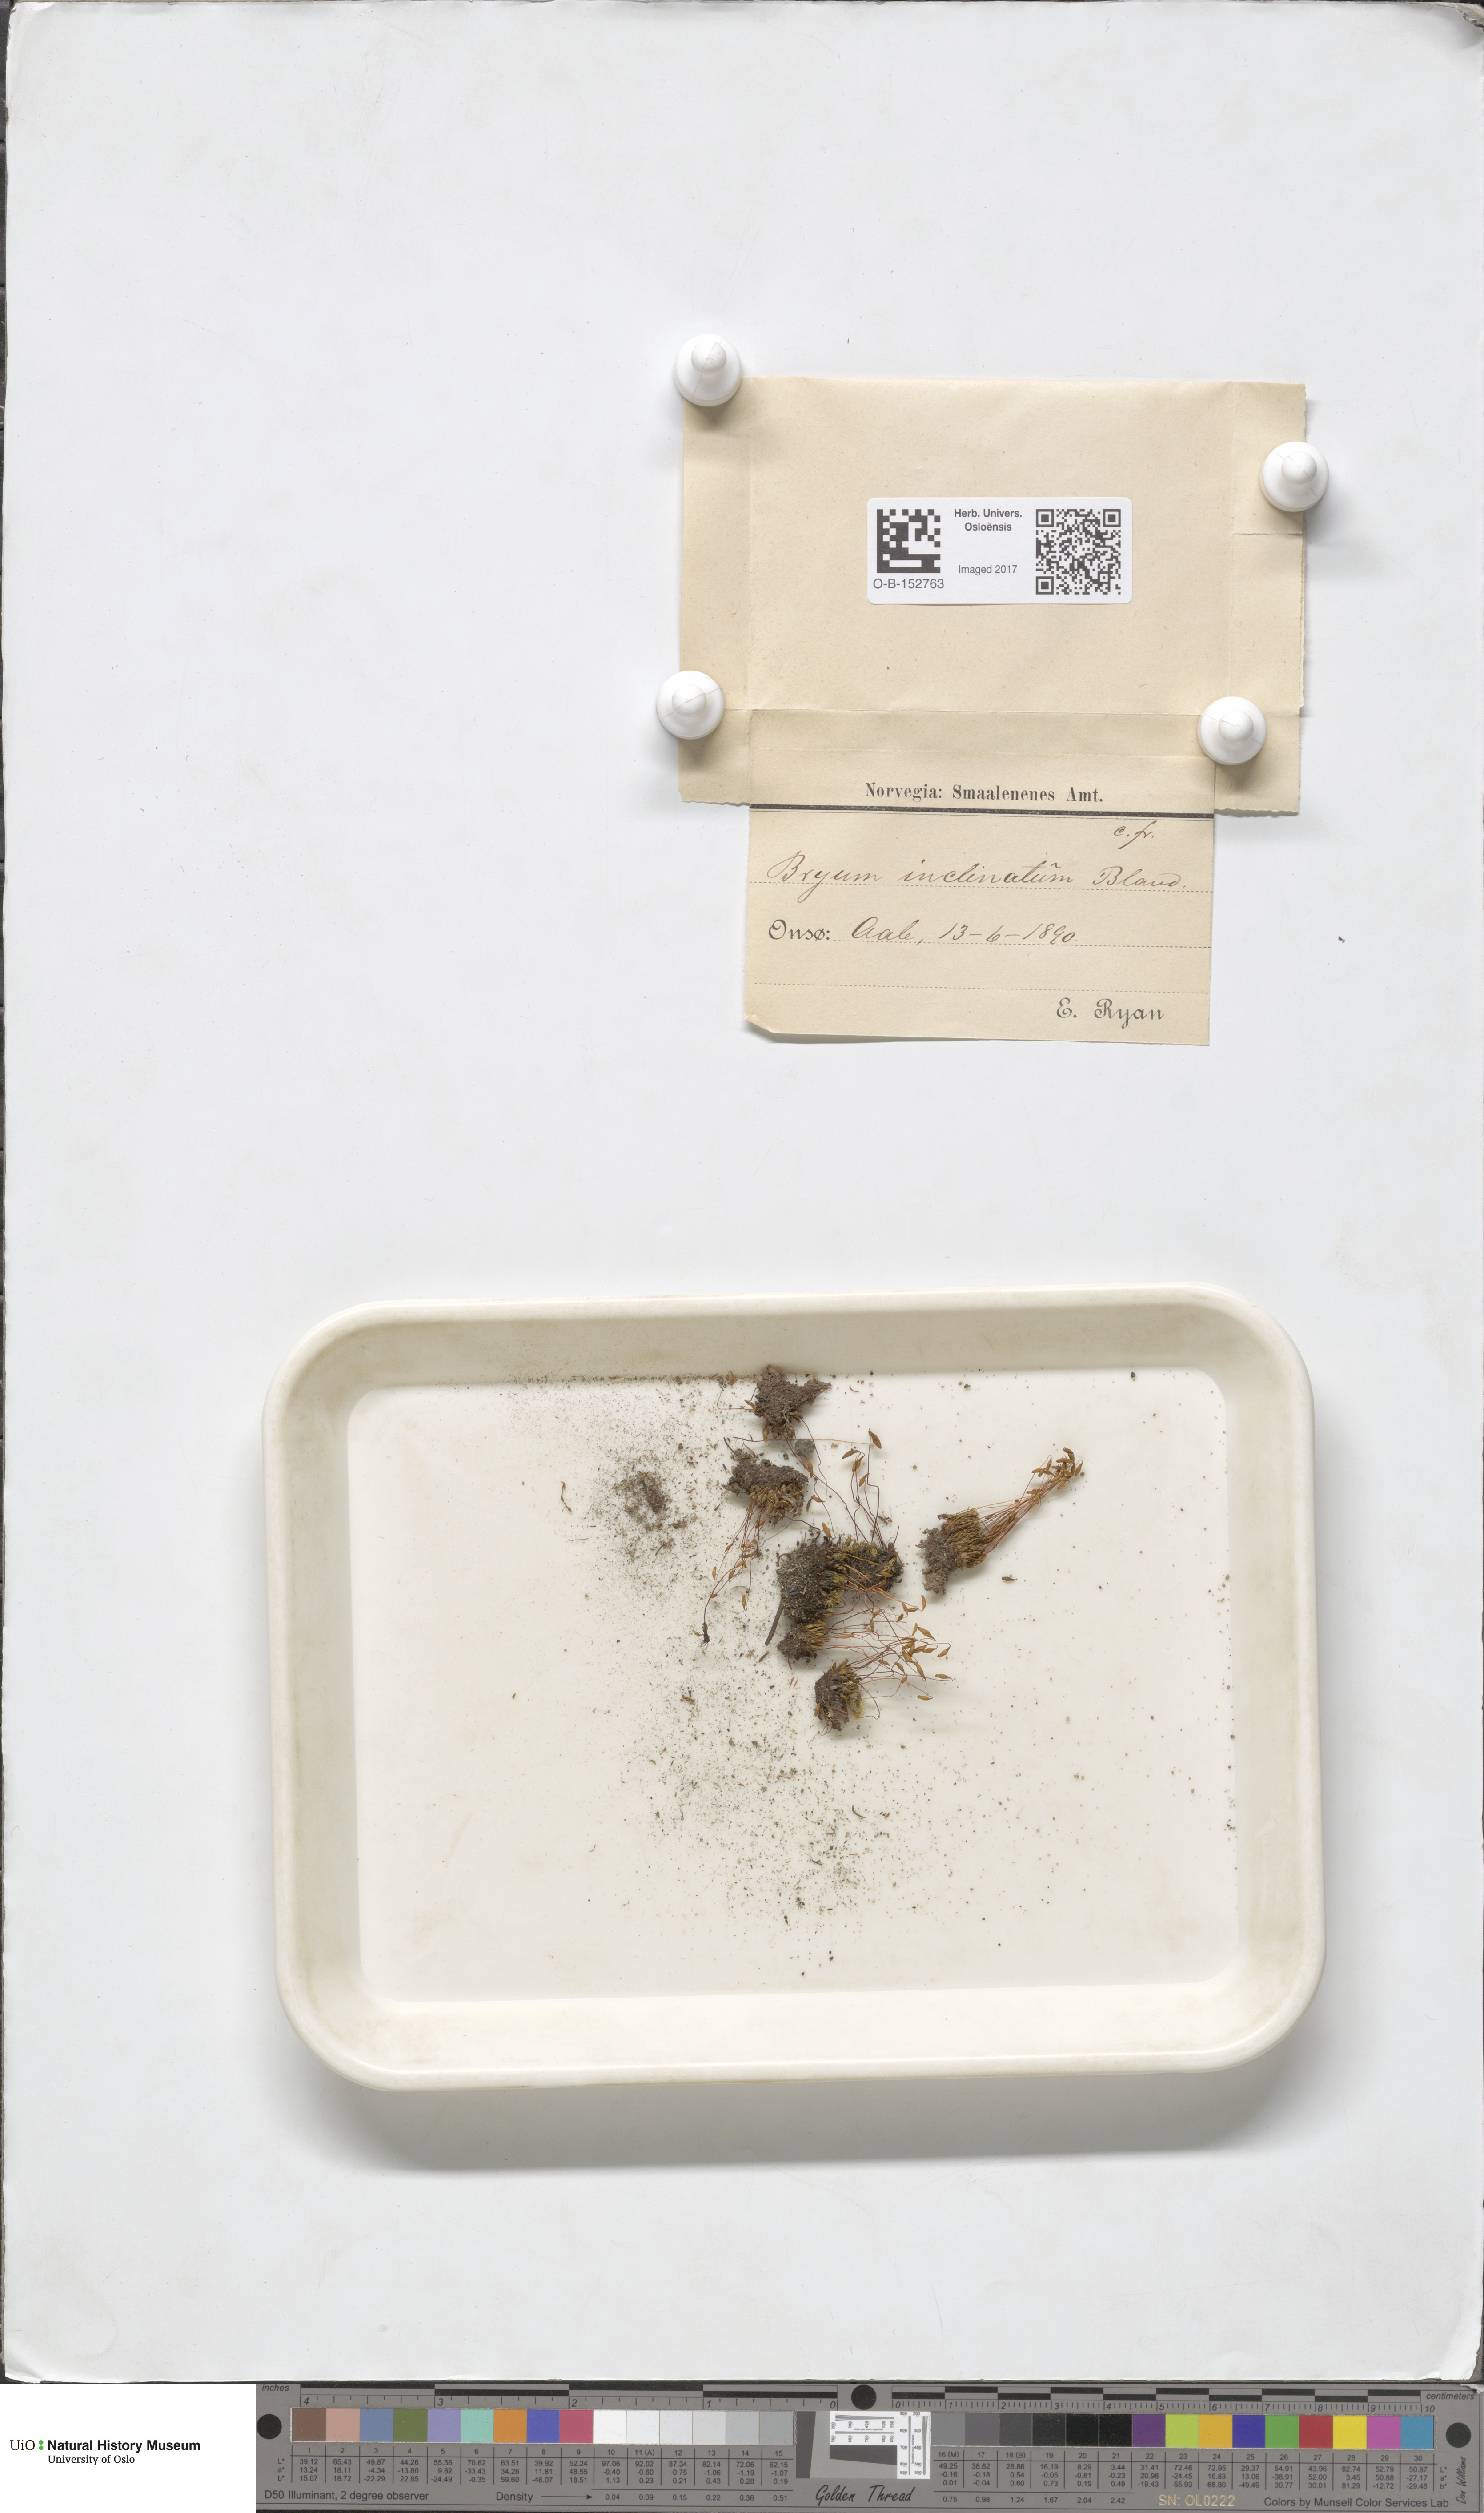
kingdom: Plantae
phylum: Bryophyta
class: Bryopsida
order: Bryales
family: Bryaceae
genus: Ptychostomum
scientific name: Ptychostomum inclinatum
